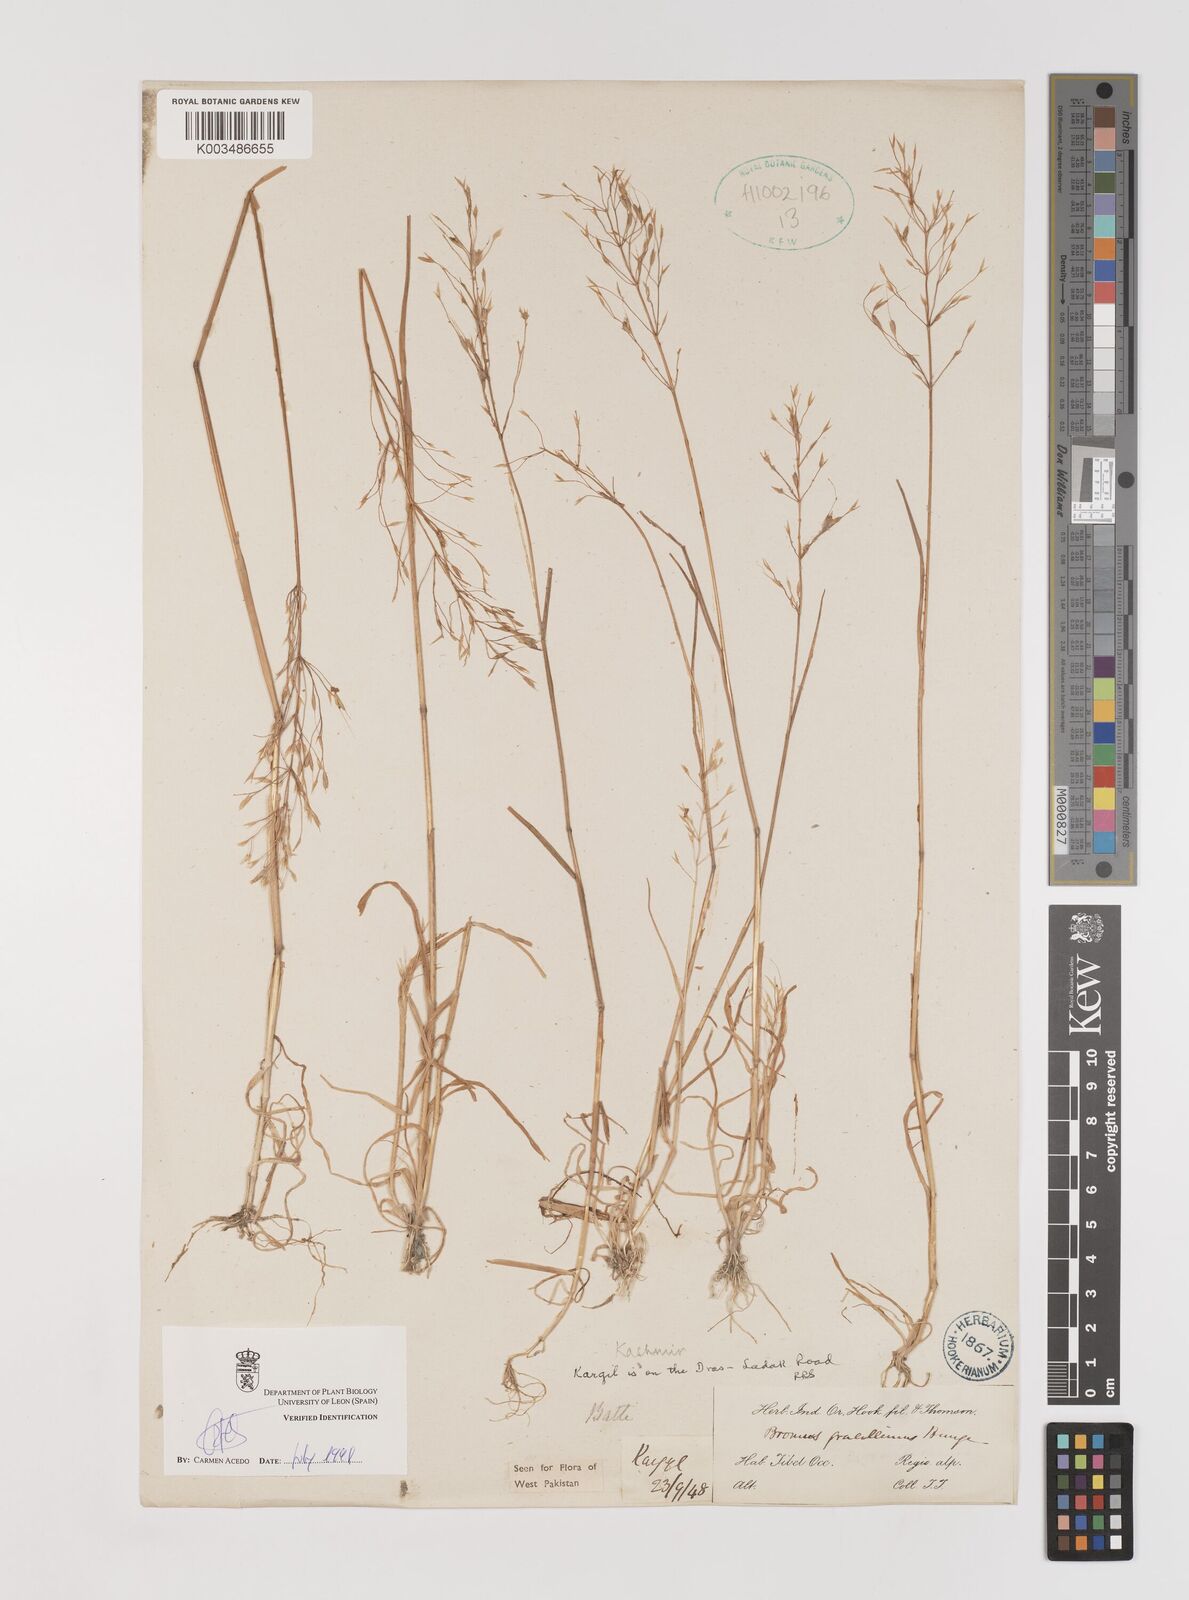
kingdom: Plantae
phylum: Tracheophyta
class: Liliopsida
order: Poales
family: Poaceae
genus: Bromus
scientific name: Bromus pectinatus
